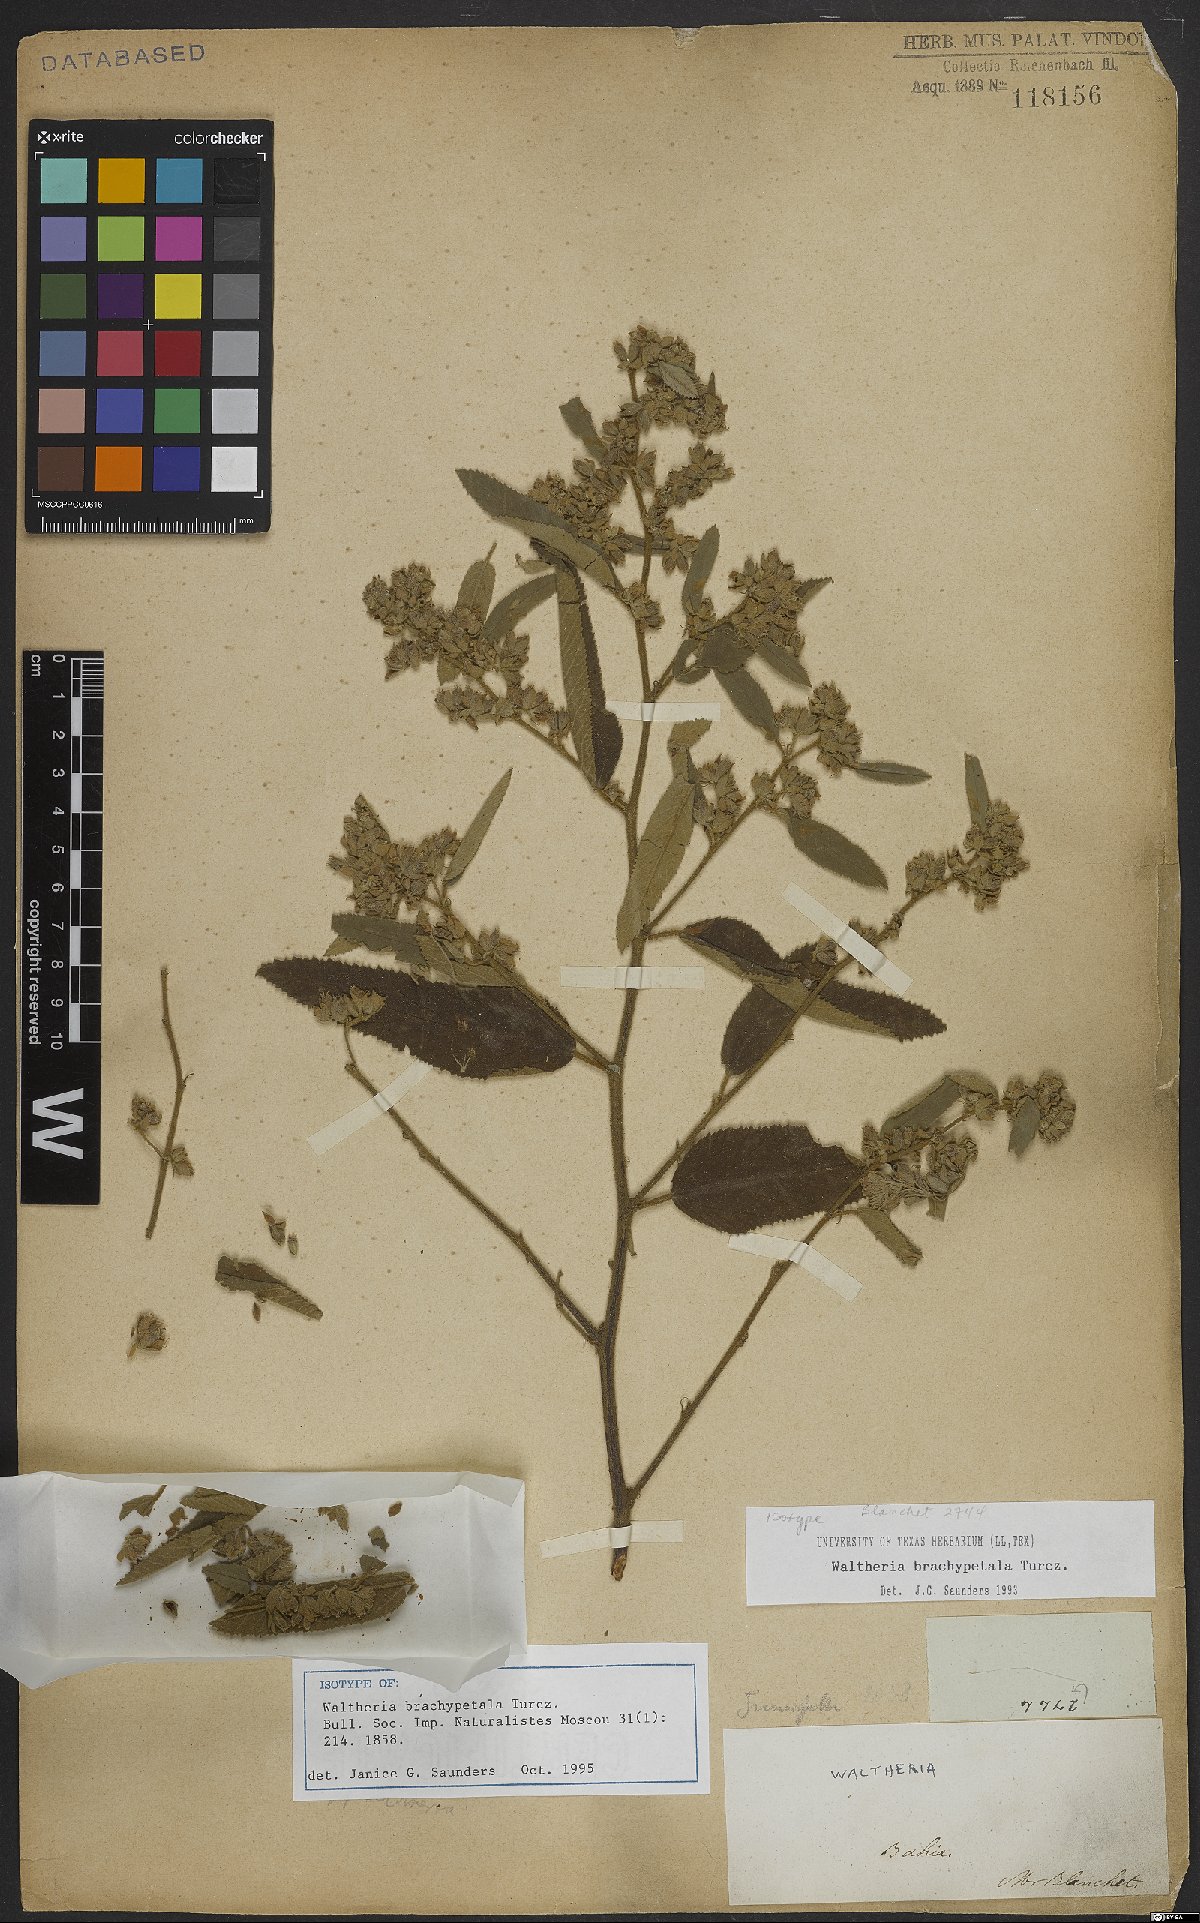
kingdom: Plantae
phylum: Tracheophyta
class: Magnoliopsida
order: Malvales
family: Malvaceae
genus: Waltheria
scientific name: Waltheria brachypetala
